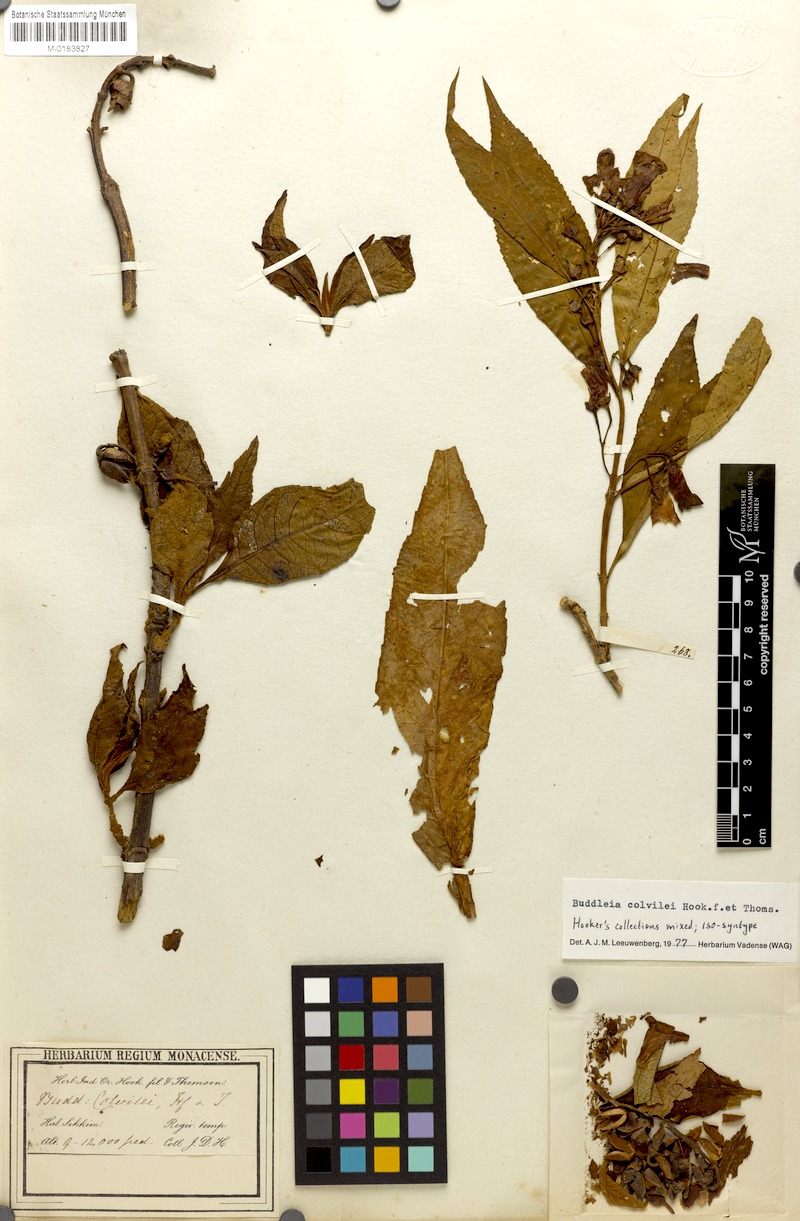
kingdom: Plantae
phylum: Tracheophyta
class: Magnoliopsida
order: Lamiales
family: Scrophulariaceae
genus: Buddleja
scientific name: Buddleja colvilei
